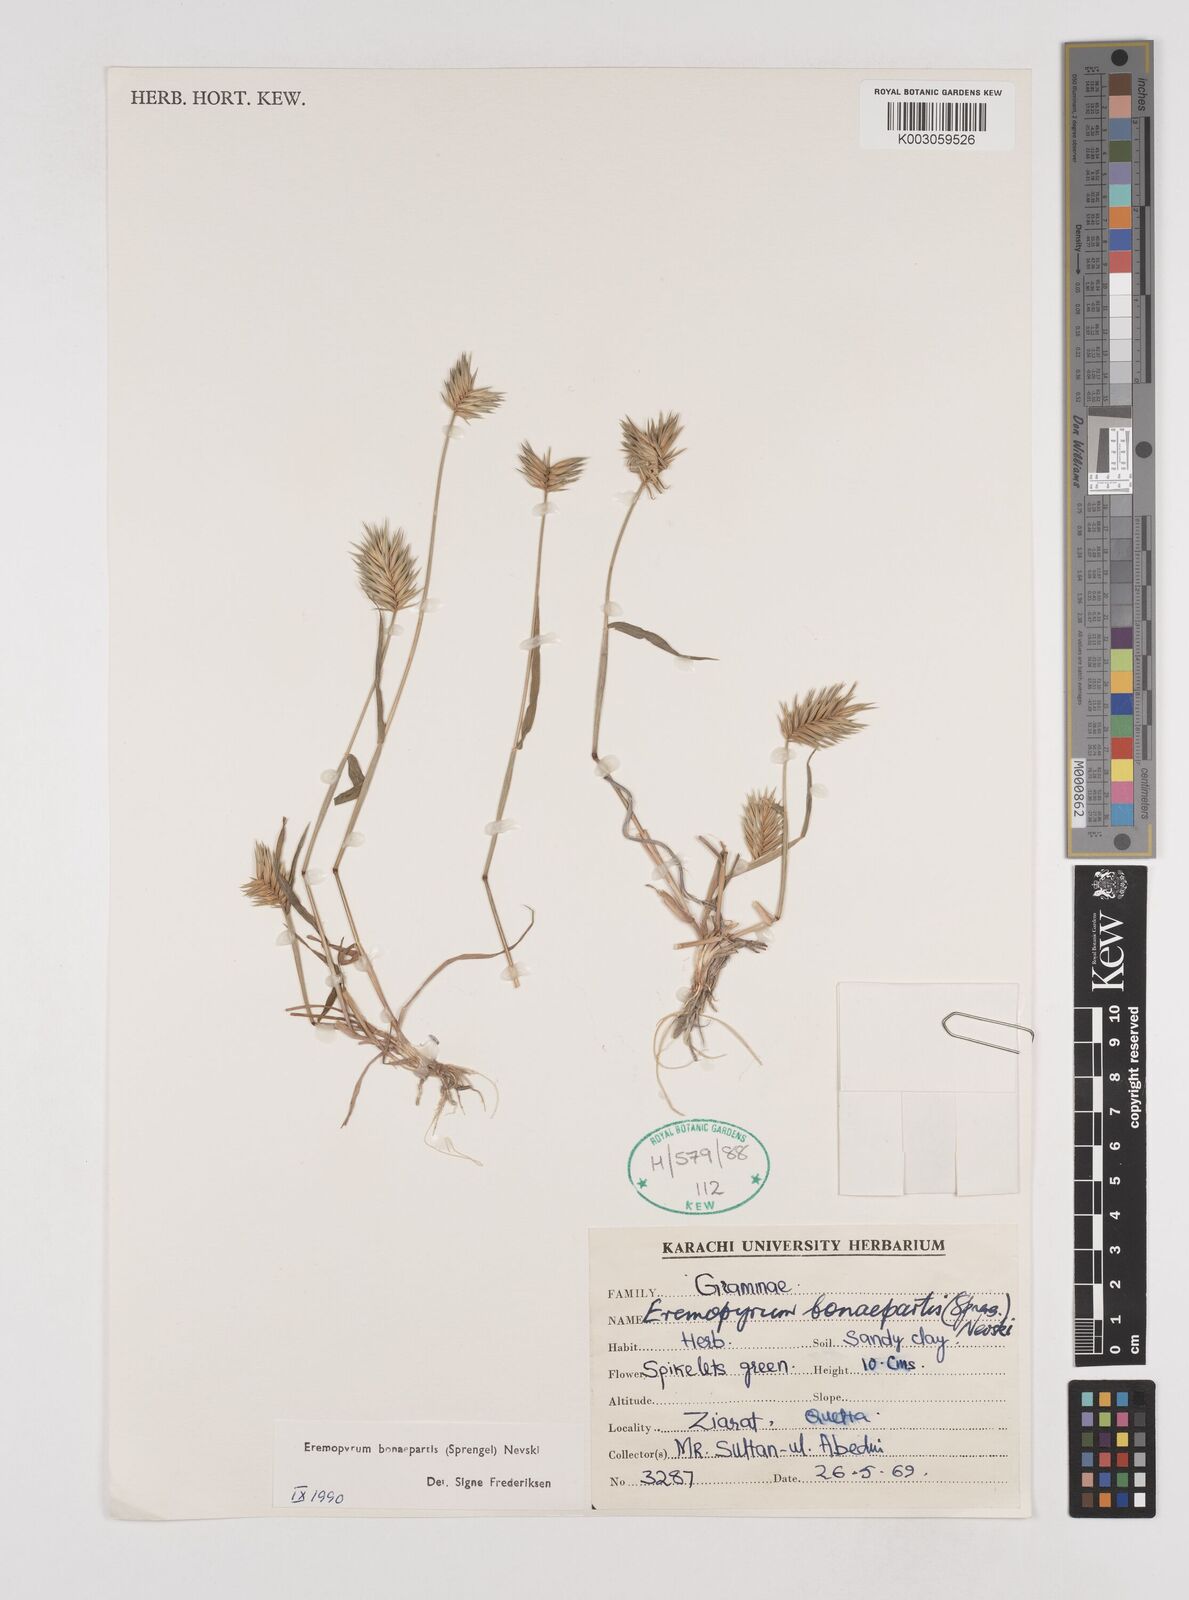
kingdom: Plantae
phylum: Tracheophyta
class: Liliopsida
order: Poales
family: Poaceae
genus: Eremopyrum
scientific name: Eremopyrum bonaepartis
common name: Tapertip false wheatgrass
